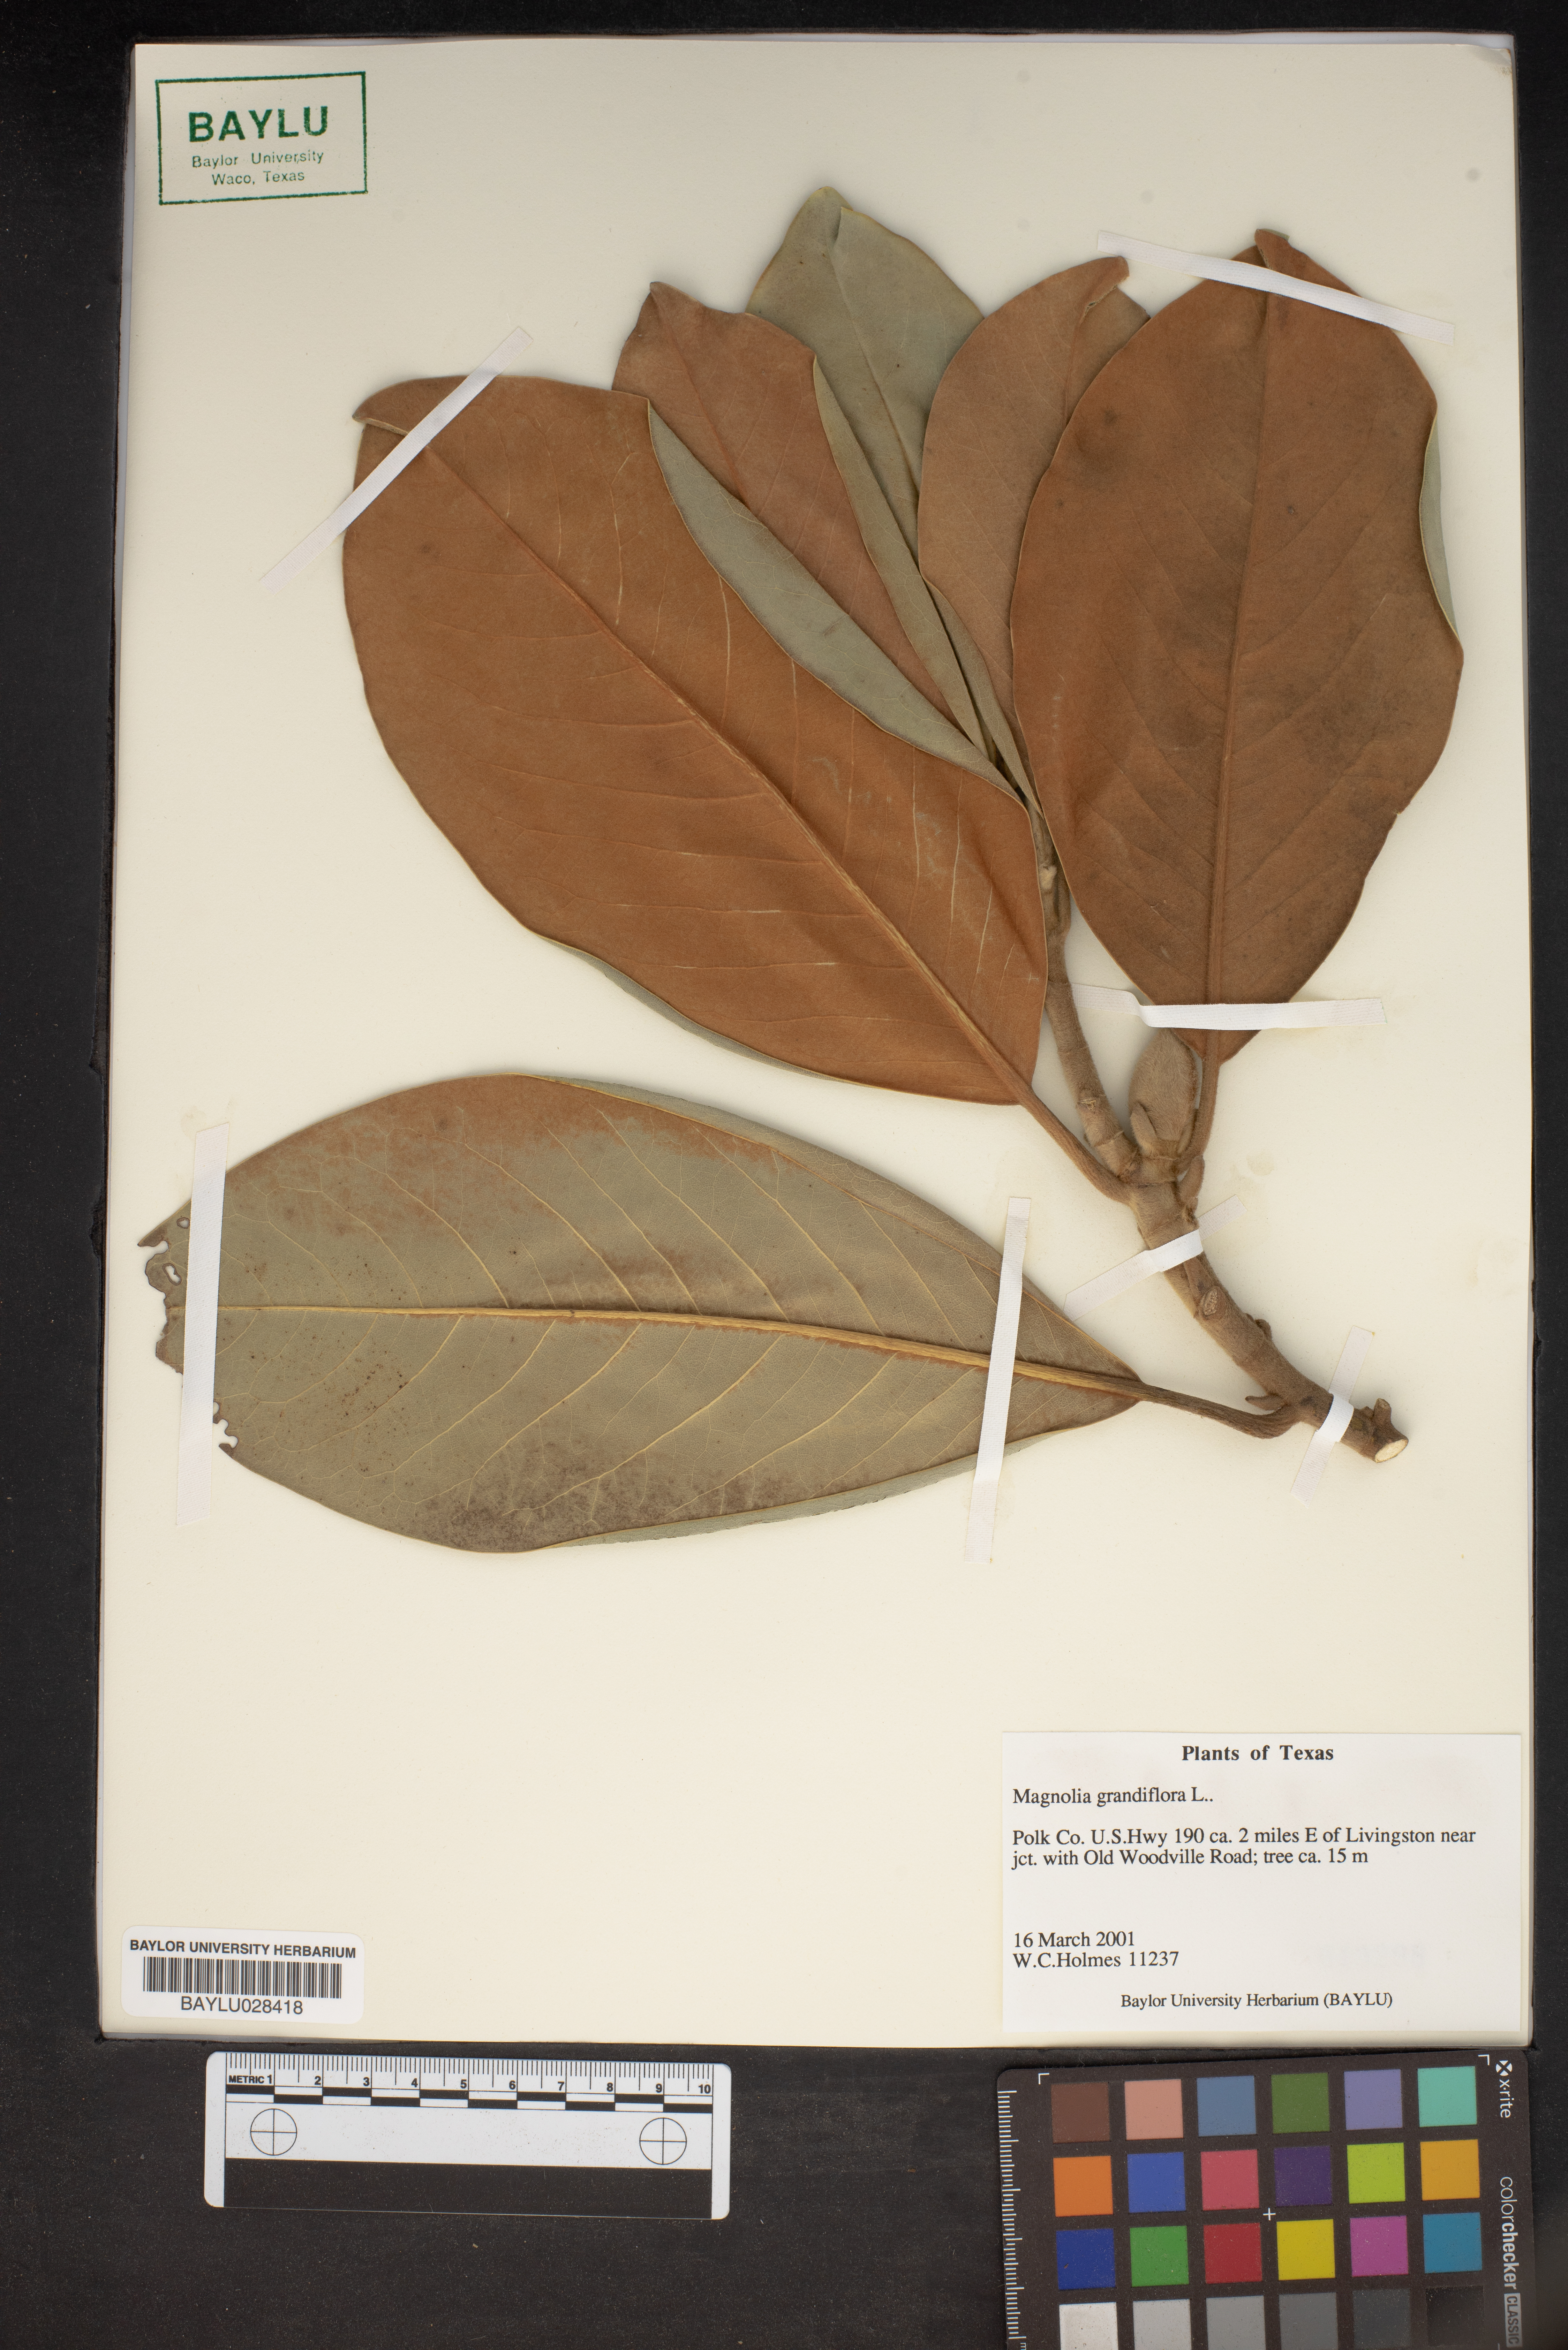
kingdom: Plantae
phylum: Tracheophyta
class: Magnoliopsida
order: Magnoliales
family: Magnoliaceae
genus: Magnolia
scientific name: Magnolia grandiflora
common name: Southern magnolia
